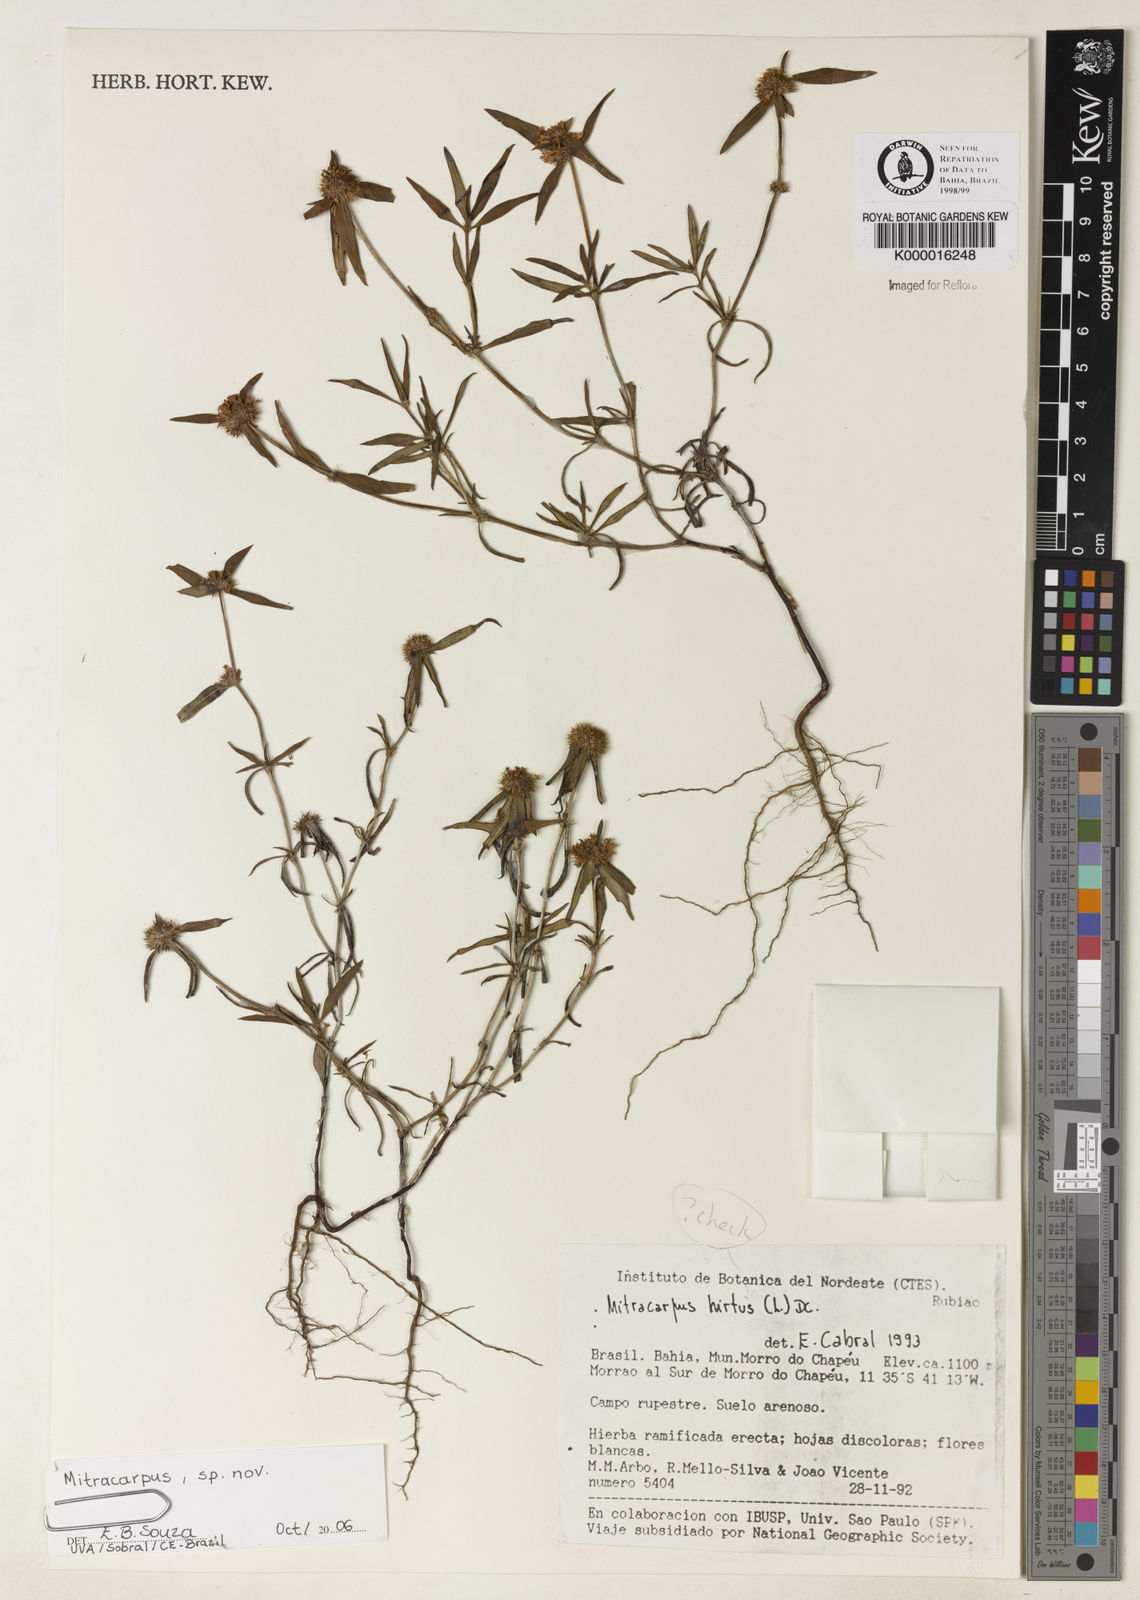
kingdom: Plantae
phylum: Tracheophyta
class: Magnoliopsida
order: Gentianales
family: Rubiaceae
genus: Mitracarpus
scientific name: Mitracarpus
